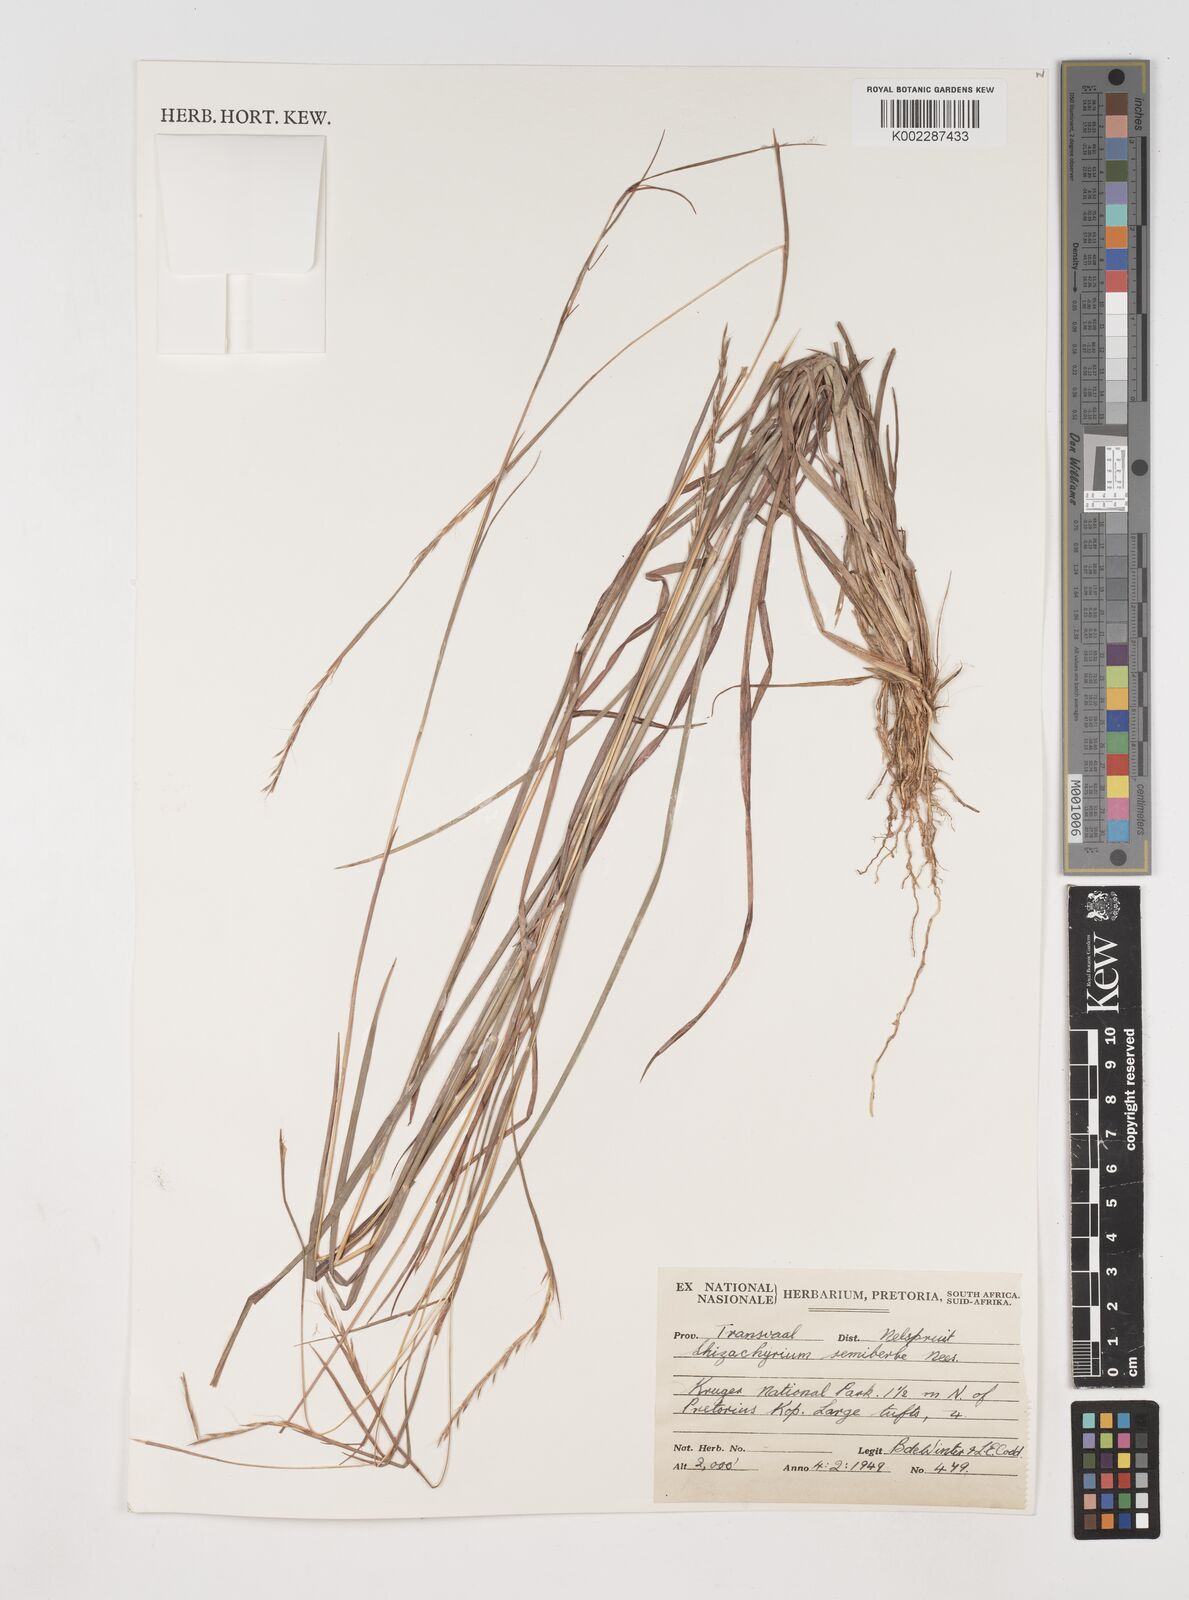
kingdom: Plantae
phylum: Tracheophyta
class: Liliopsida
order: Poales
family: Poaceae
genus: Schizachyrium
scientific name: Schizachyrium sanguineum
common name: Crimson bluestem
